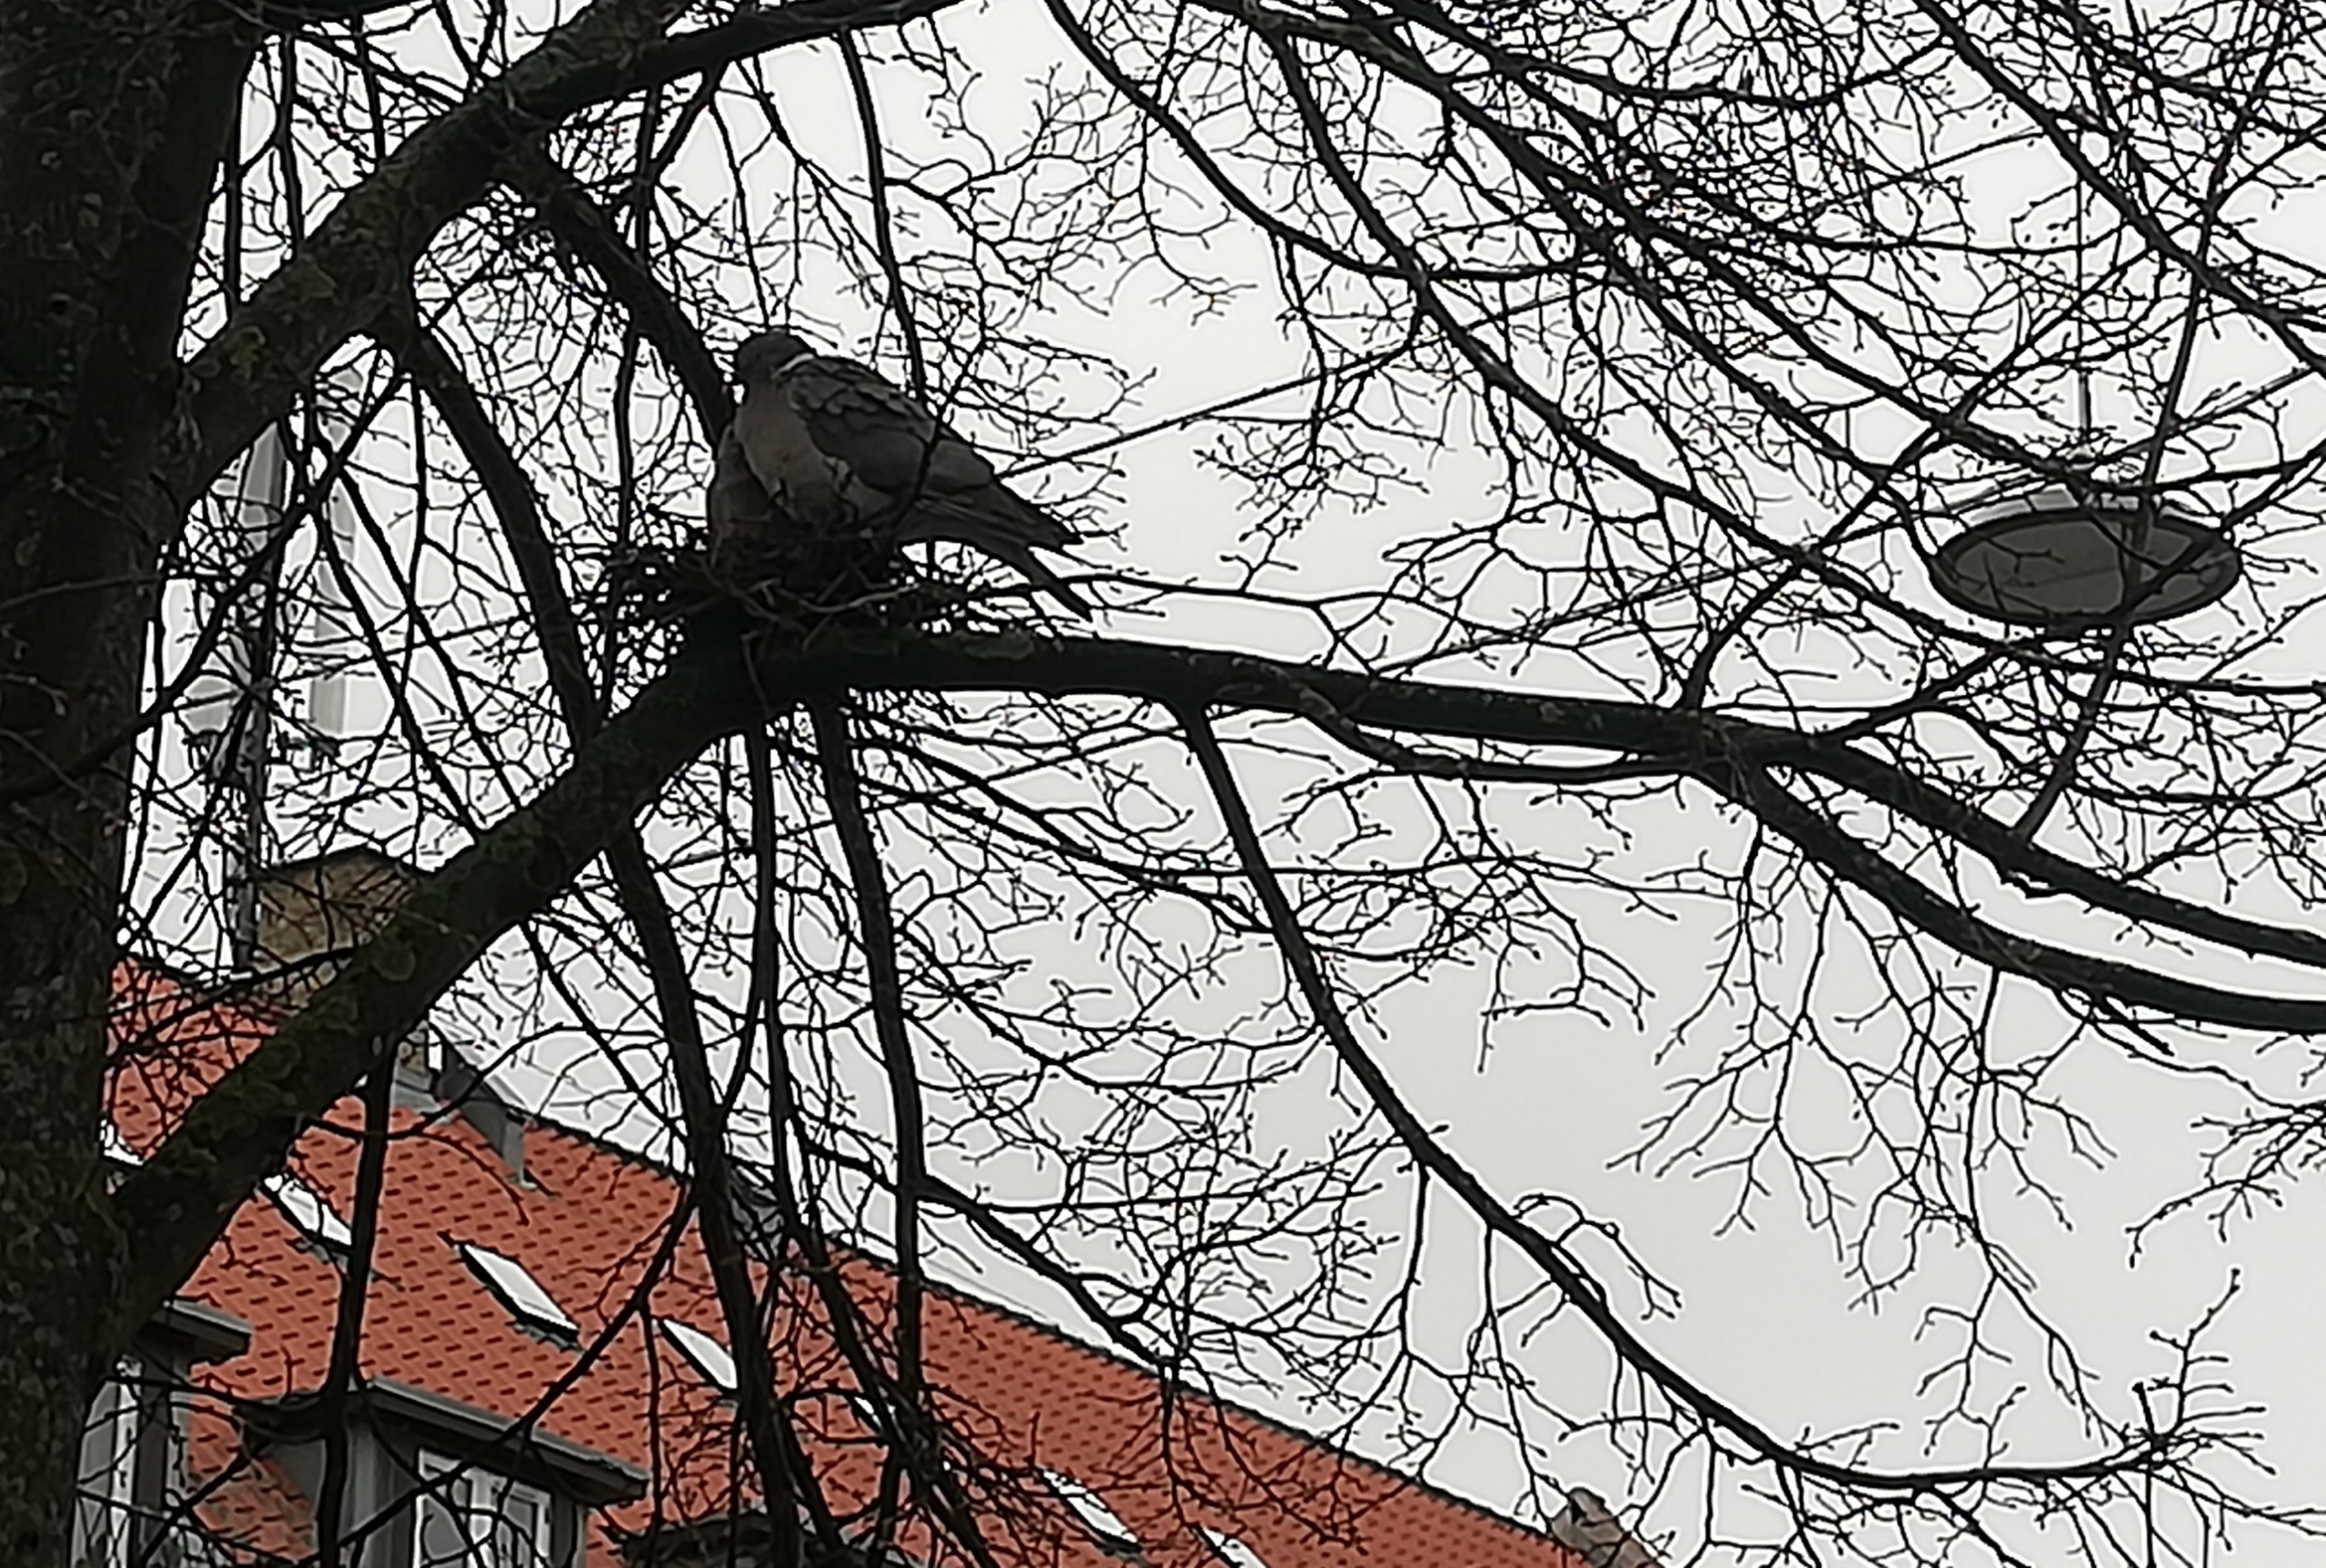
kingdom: Animalia
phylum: Chordata
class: Aves
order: Columbiformes
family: Columbidae
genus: Columba
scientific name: Columba palumbus
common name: Ringdue
